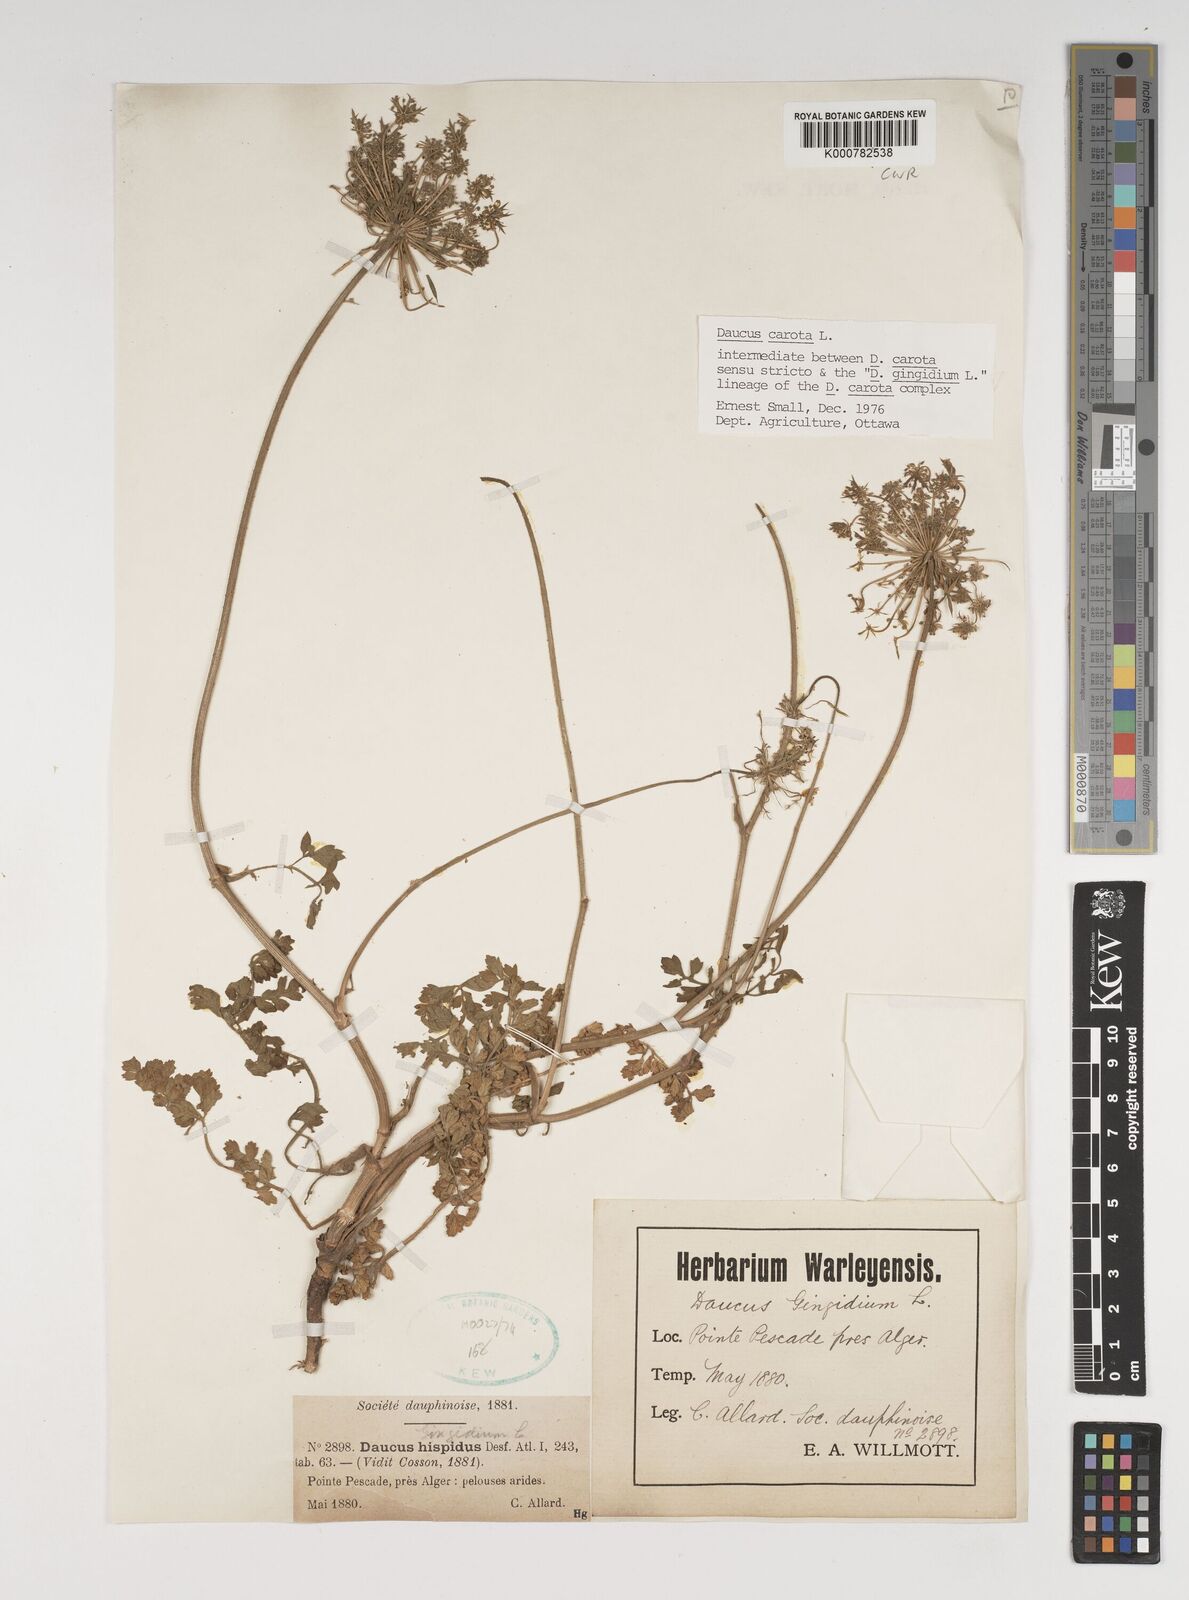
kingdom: Plantae
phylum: Tracheophyta
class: Magnoliopsida
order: Apiales
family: Apiaceae
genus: Daucus
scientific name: Daucus carota
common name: Wild carrot
